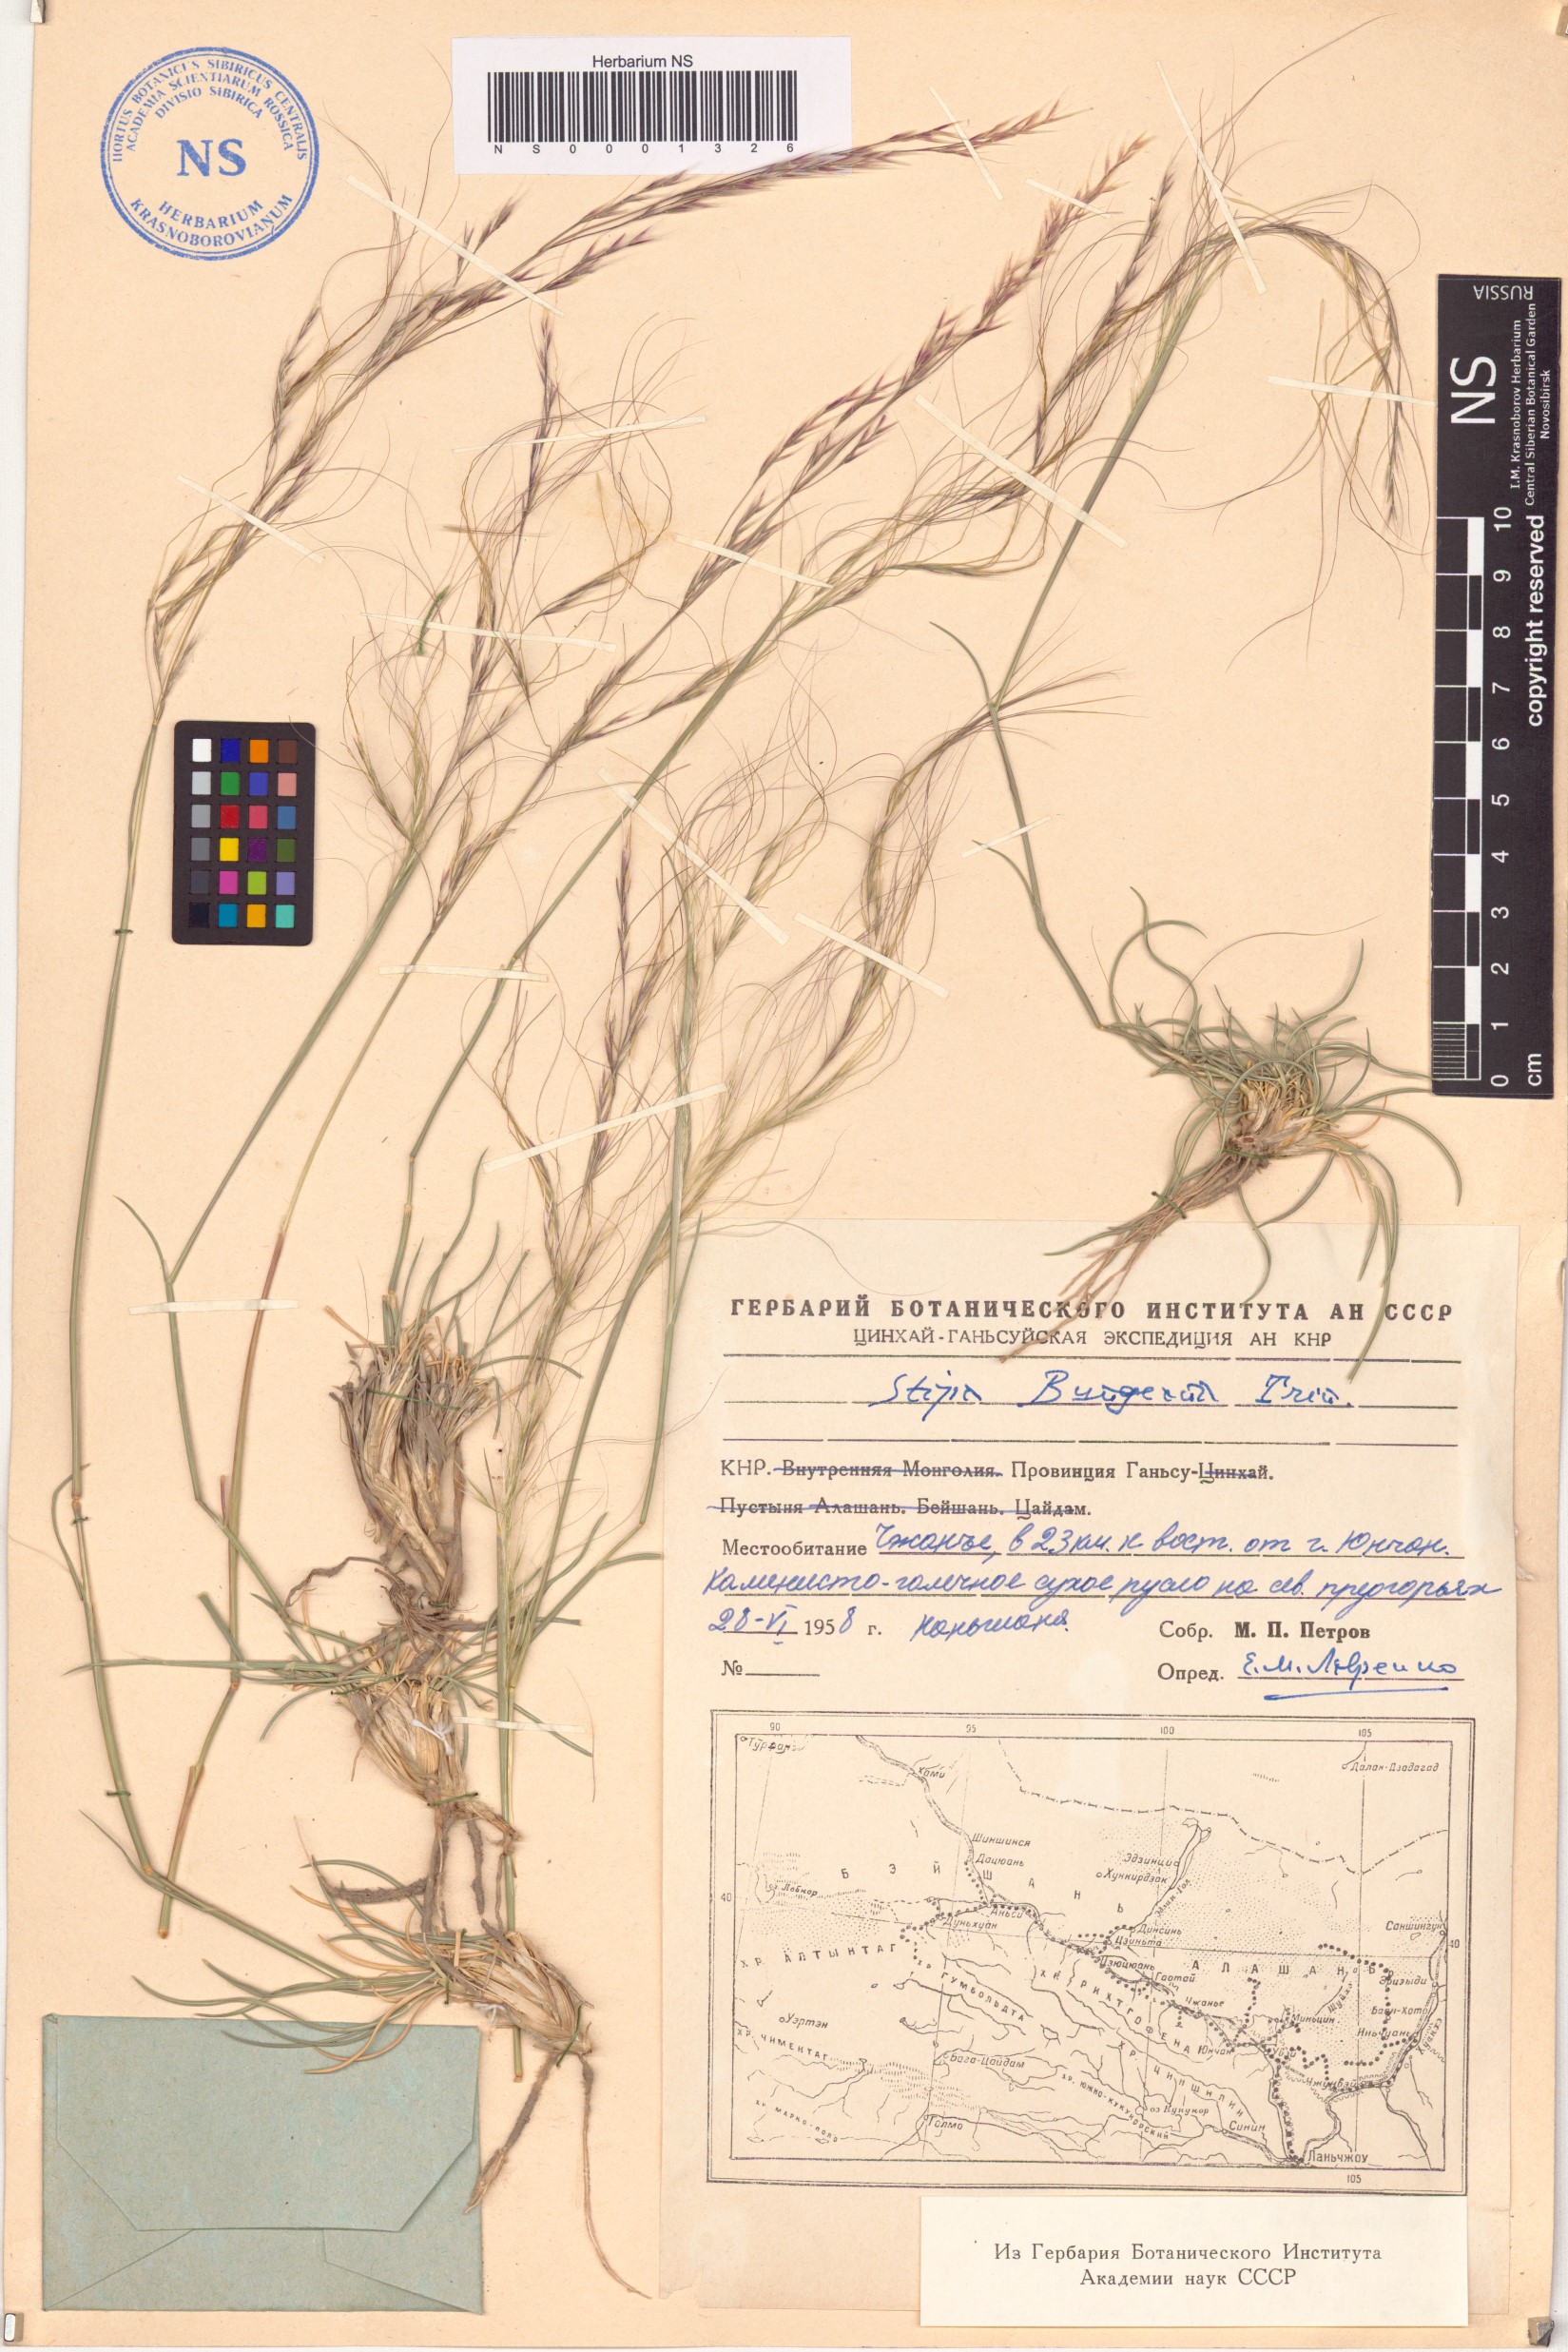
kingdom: Plantae
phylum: Tracheophyta
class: Liliopsida
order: Poales
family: Poaceae
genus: Stipa
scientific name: Stipa bungeana
